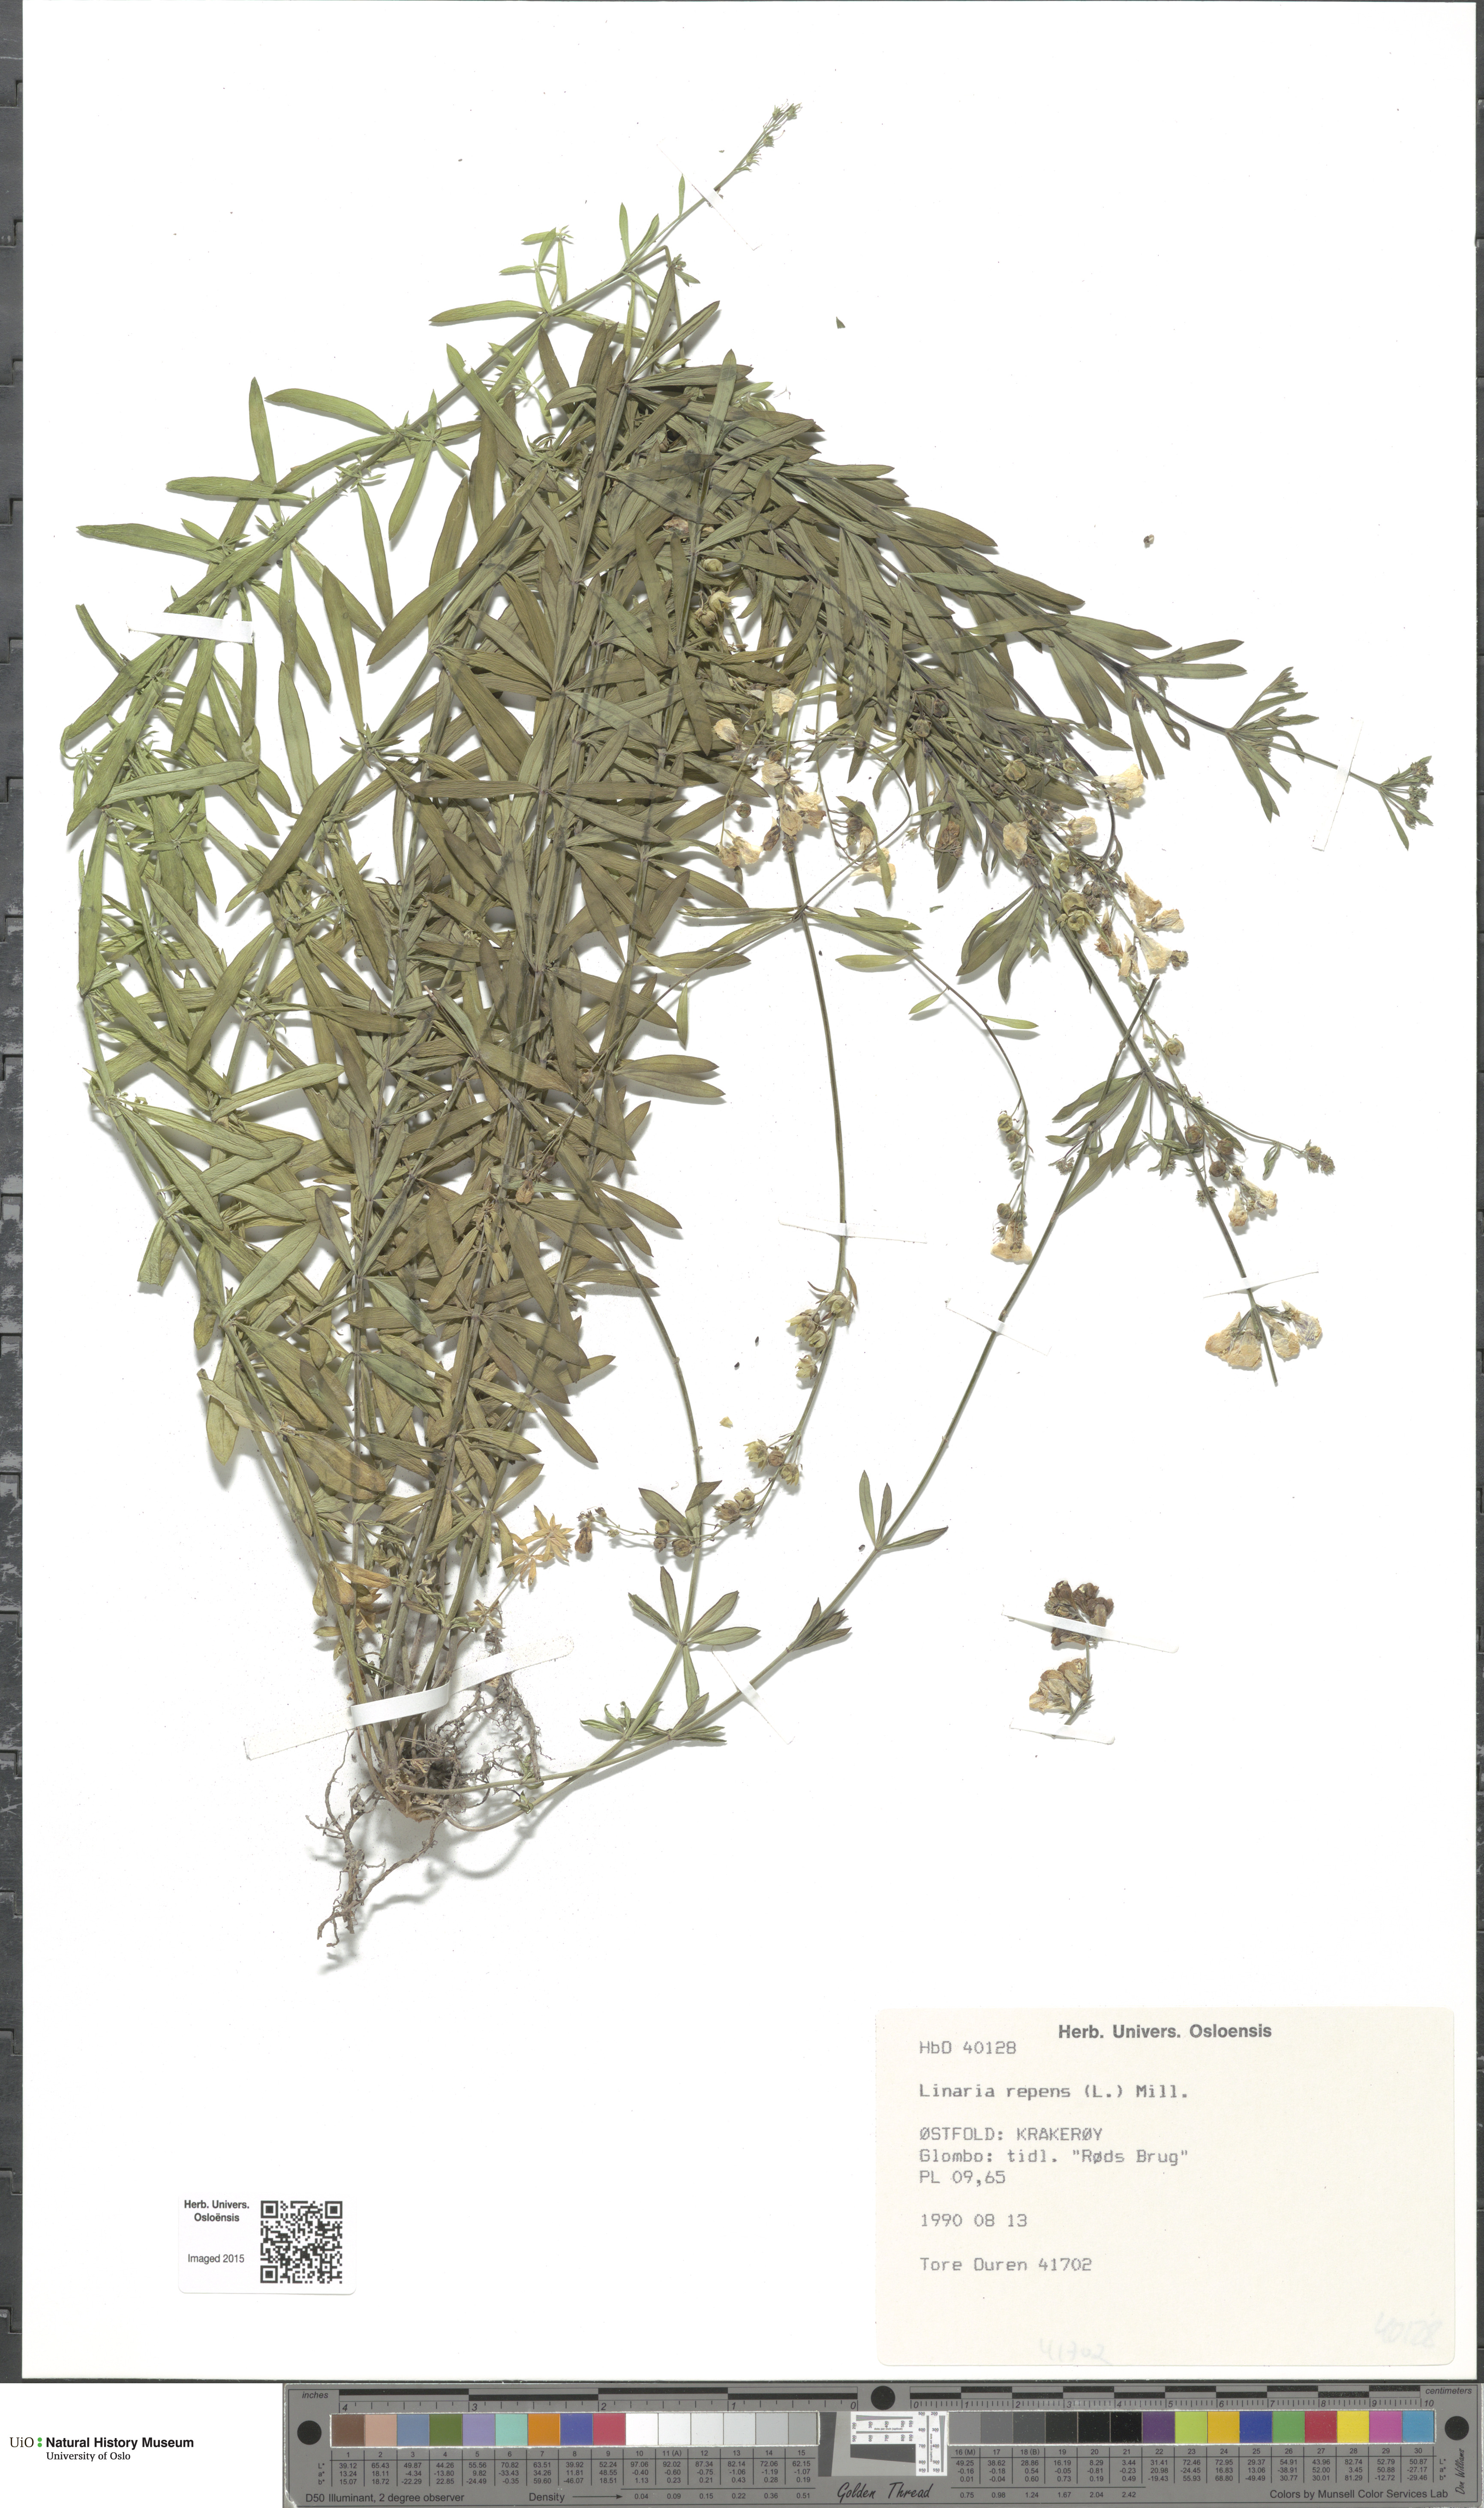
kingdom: Plantae
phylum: Tracheophyta
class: Magnoliopsida
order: Lamiales
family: Plantaginaceae
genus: Linaria
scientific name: Linaria repens
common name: Pale toadflax
